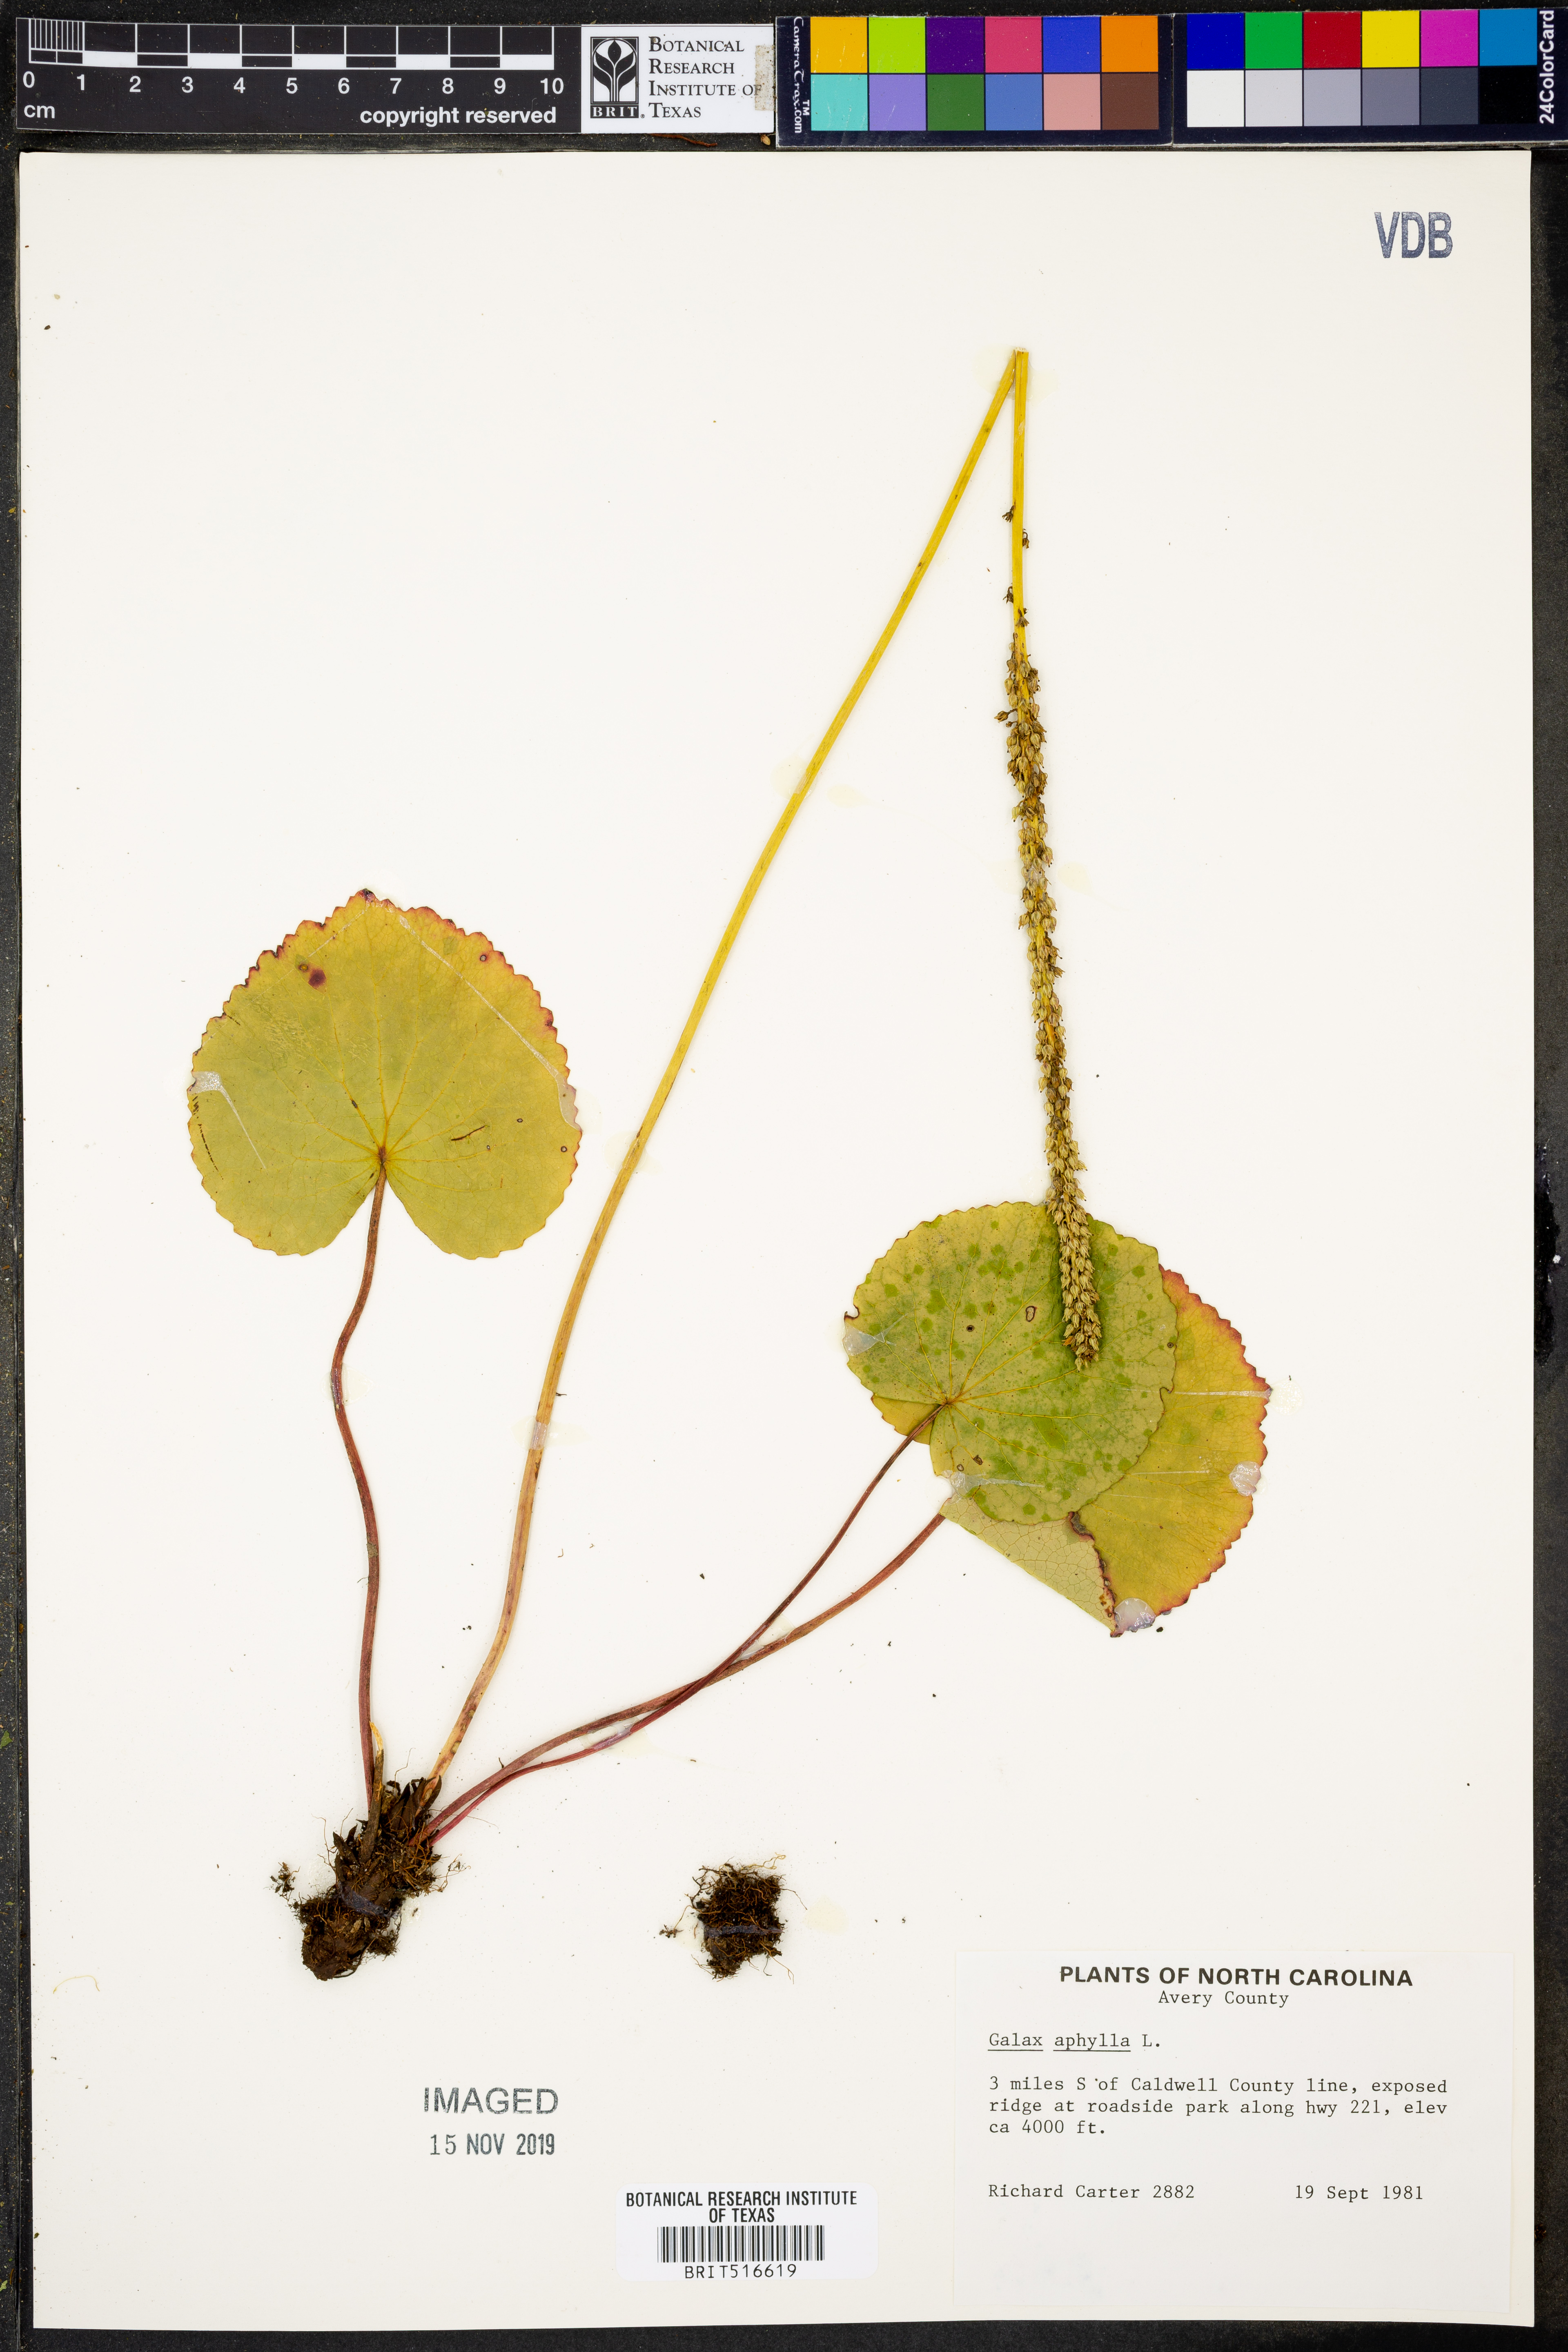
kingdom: Plantae
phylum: Tracheophyta
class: Magnoliopsida
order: Boraginales
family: Hydrophyllaceae
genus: Nemophila
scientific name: Nemophila aphylla
